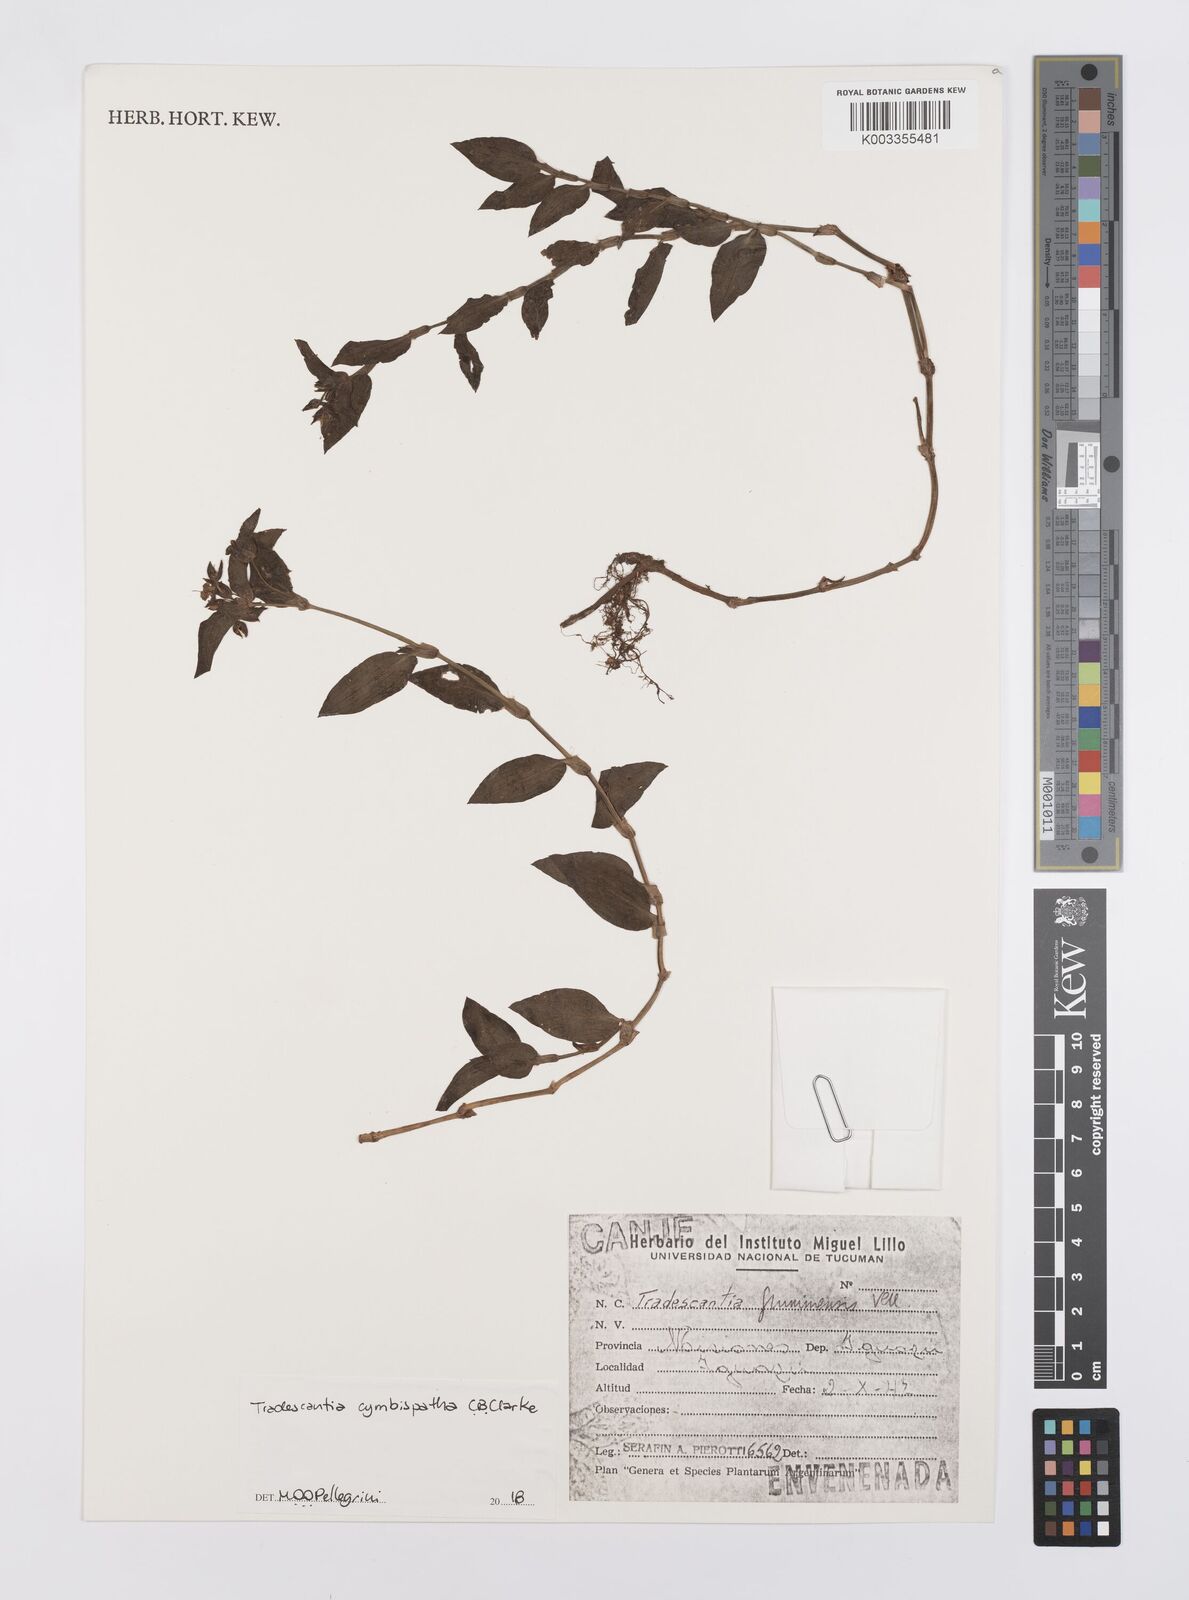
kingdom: Plantae
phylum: Tracheophyta
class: Liliopsida
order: Commelinales
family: Commelinaceae
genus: Tradescantia
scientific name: Tradescantia cymbispatha
